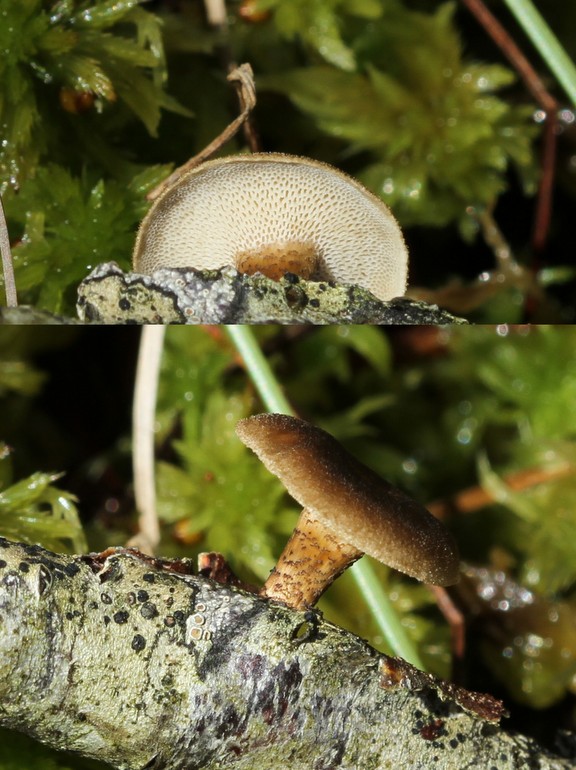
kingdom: Fungi
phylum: Basidiomycota
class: Agaricomycetes
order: Polyporales
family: Polyporaceae
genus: Lentinus
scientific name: Lentinus brumalis
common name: vinter-stilkporesvamp
